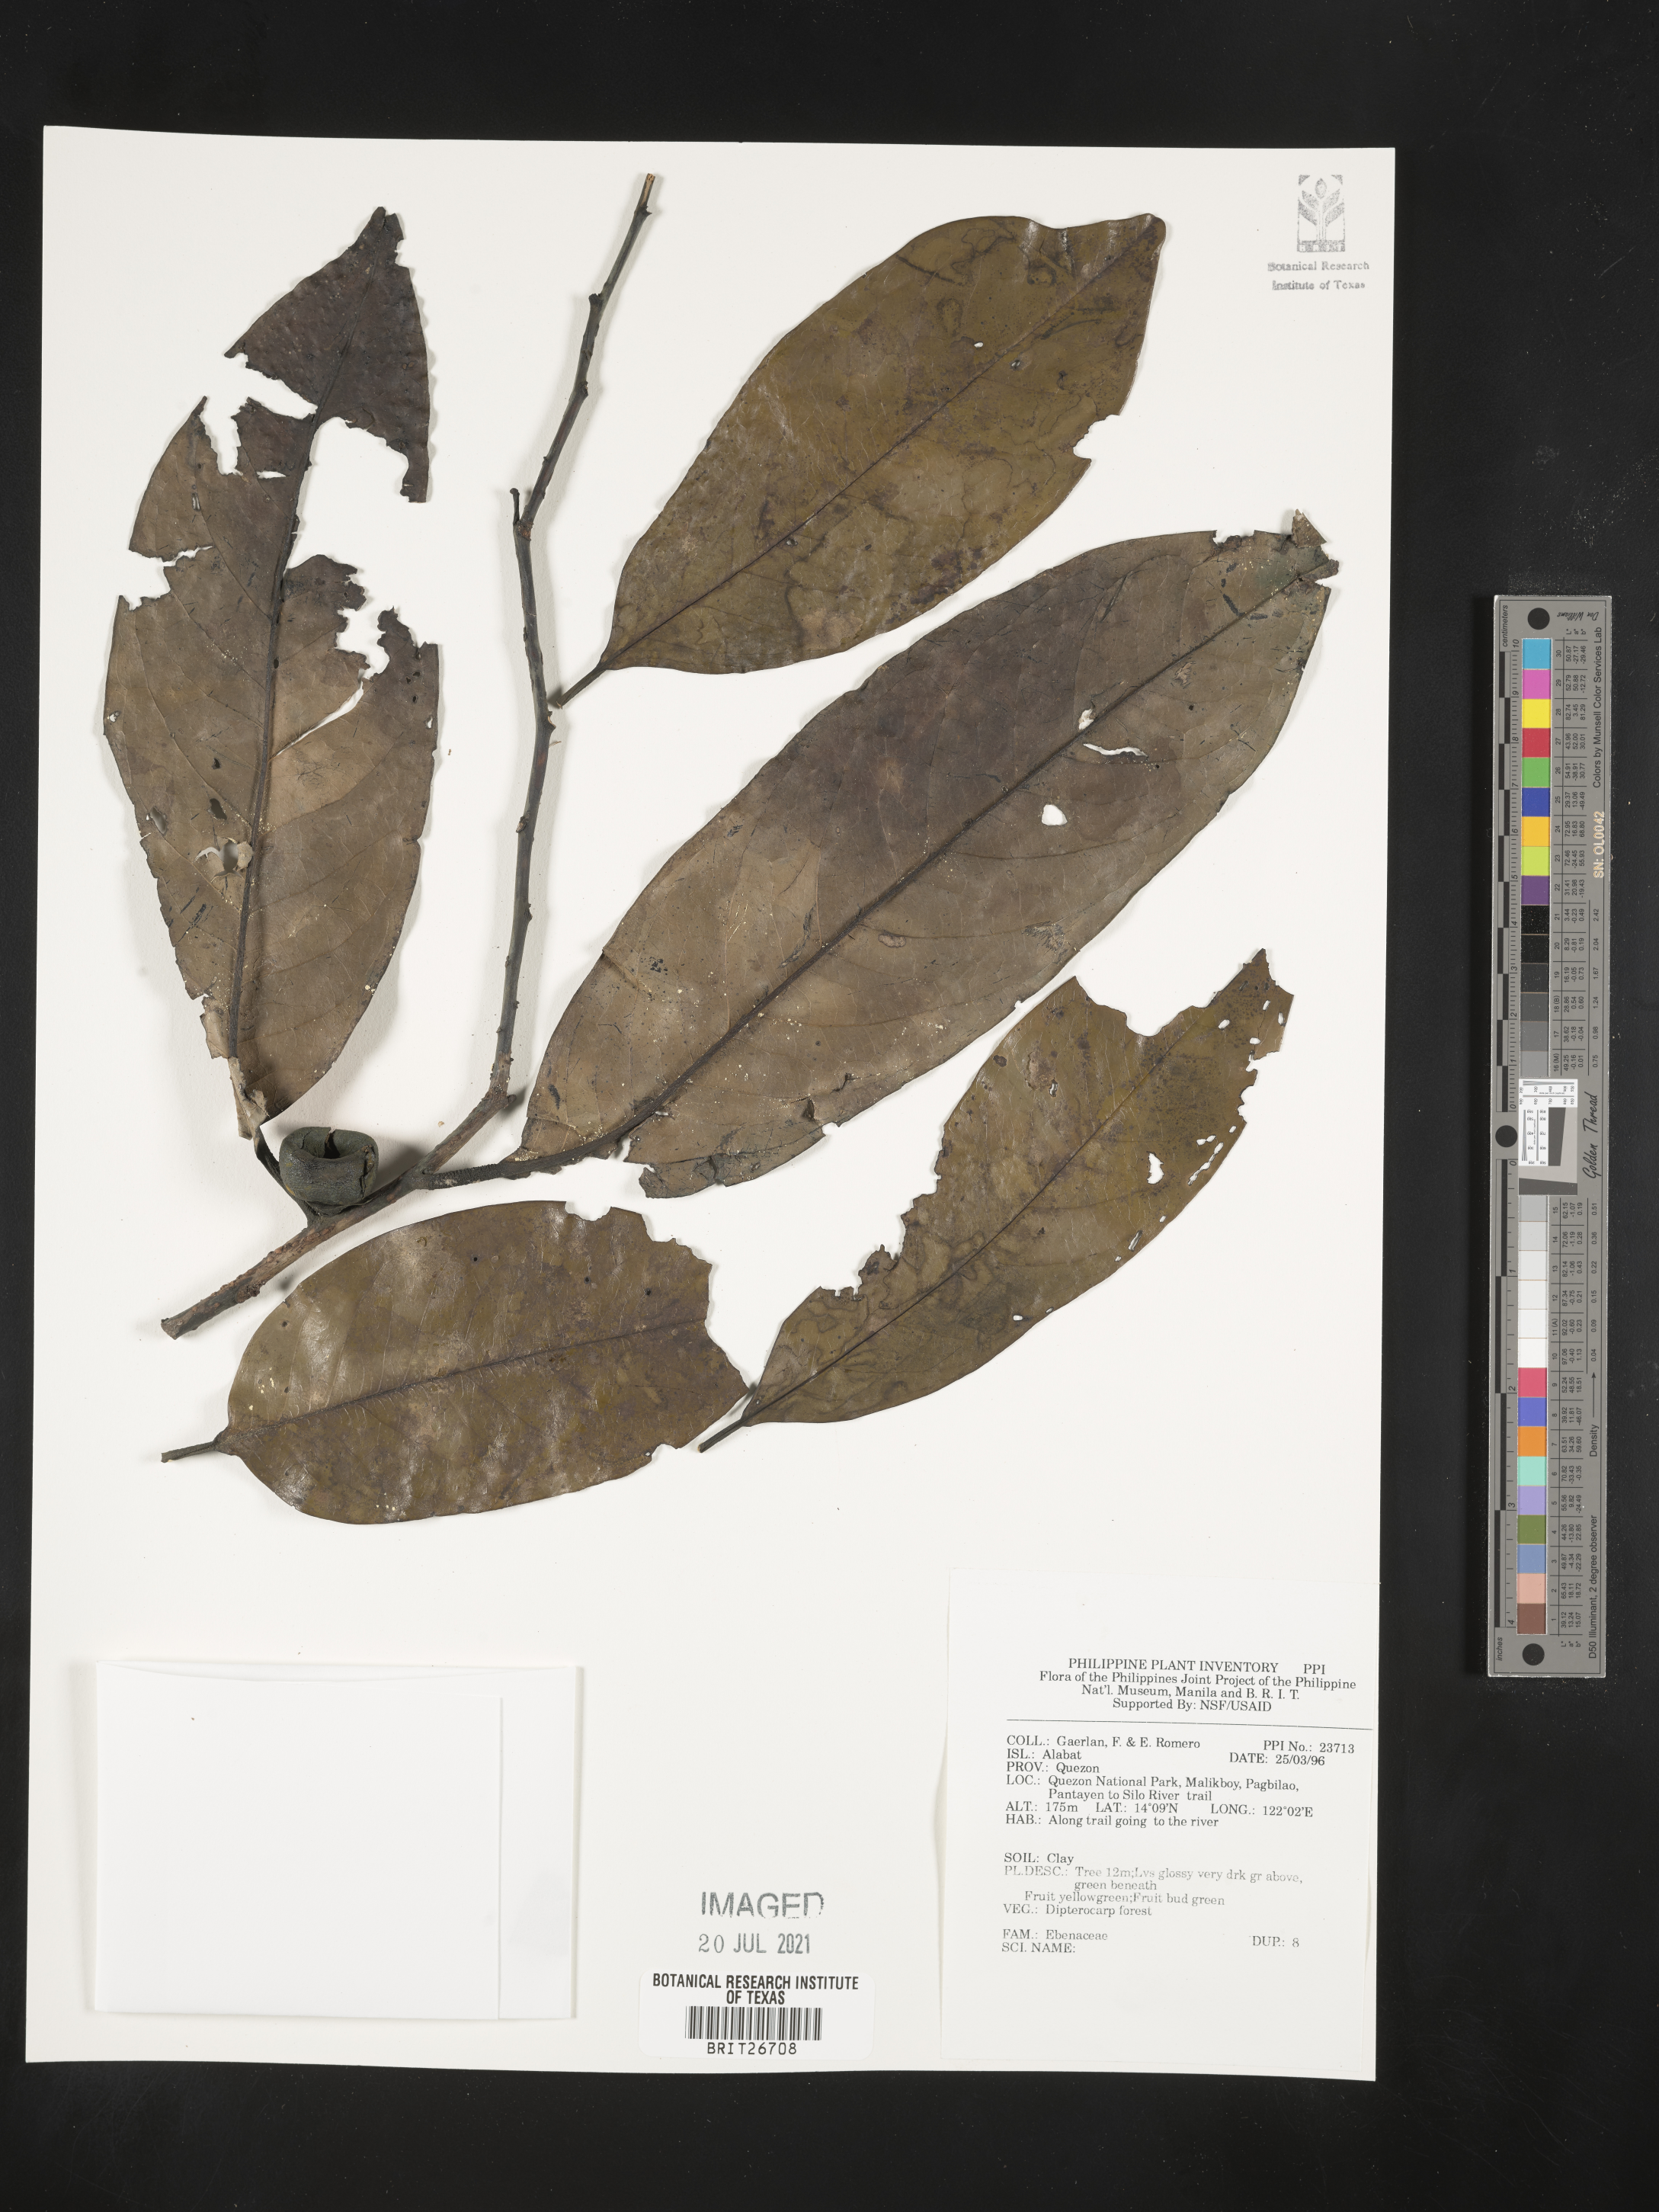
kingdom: Plantae
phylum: Tracheophyta
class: Magnoliopsida
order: Ericales
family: Ebenaceae
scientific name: Ebenaceae
